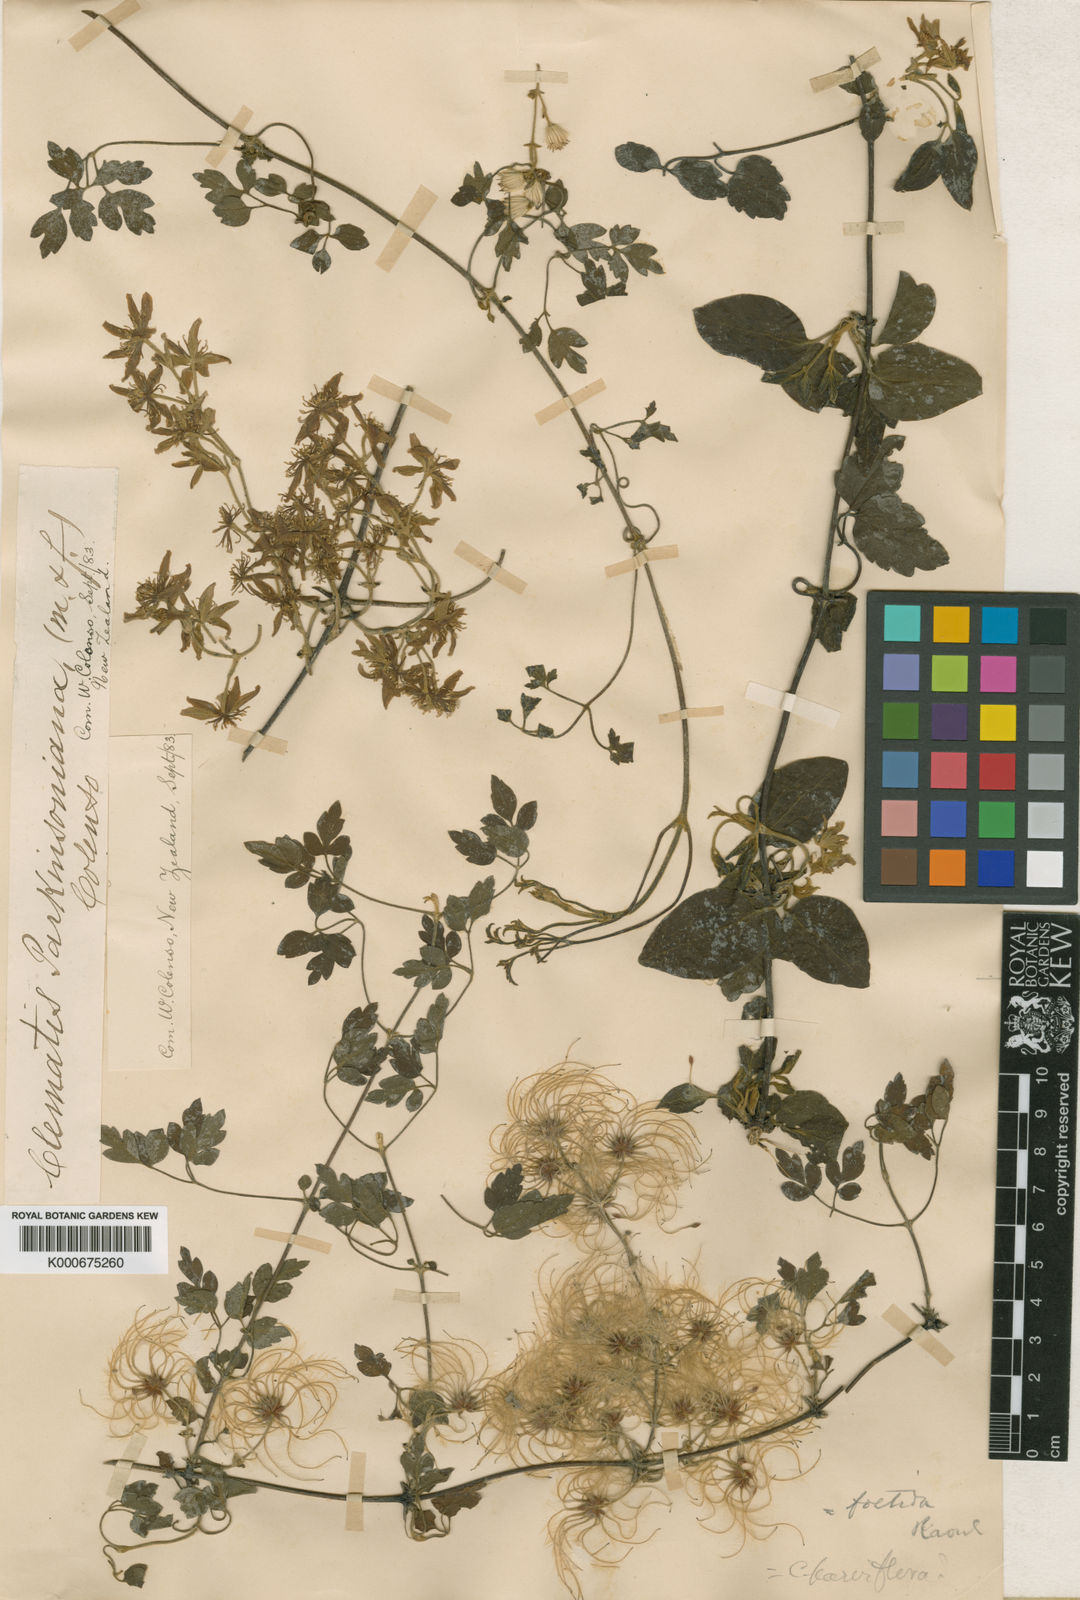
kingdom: Plantae
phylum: Tracheophyta
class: Magnoliopsida
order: Ranunculales
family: Ranunculaceae
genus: Clematis
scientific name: Clematis foetida
